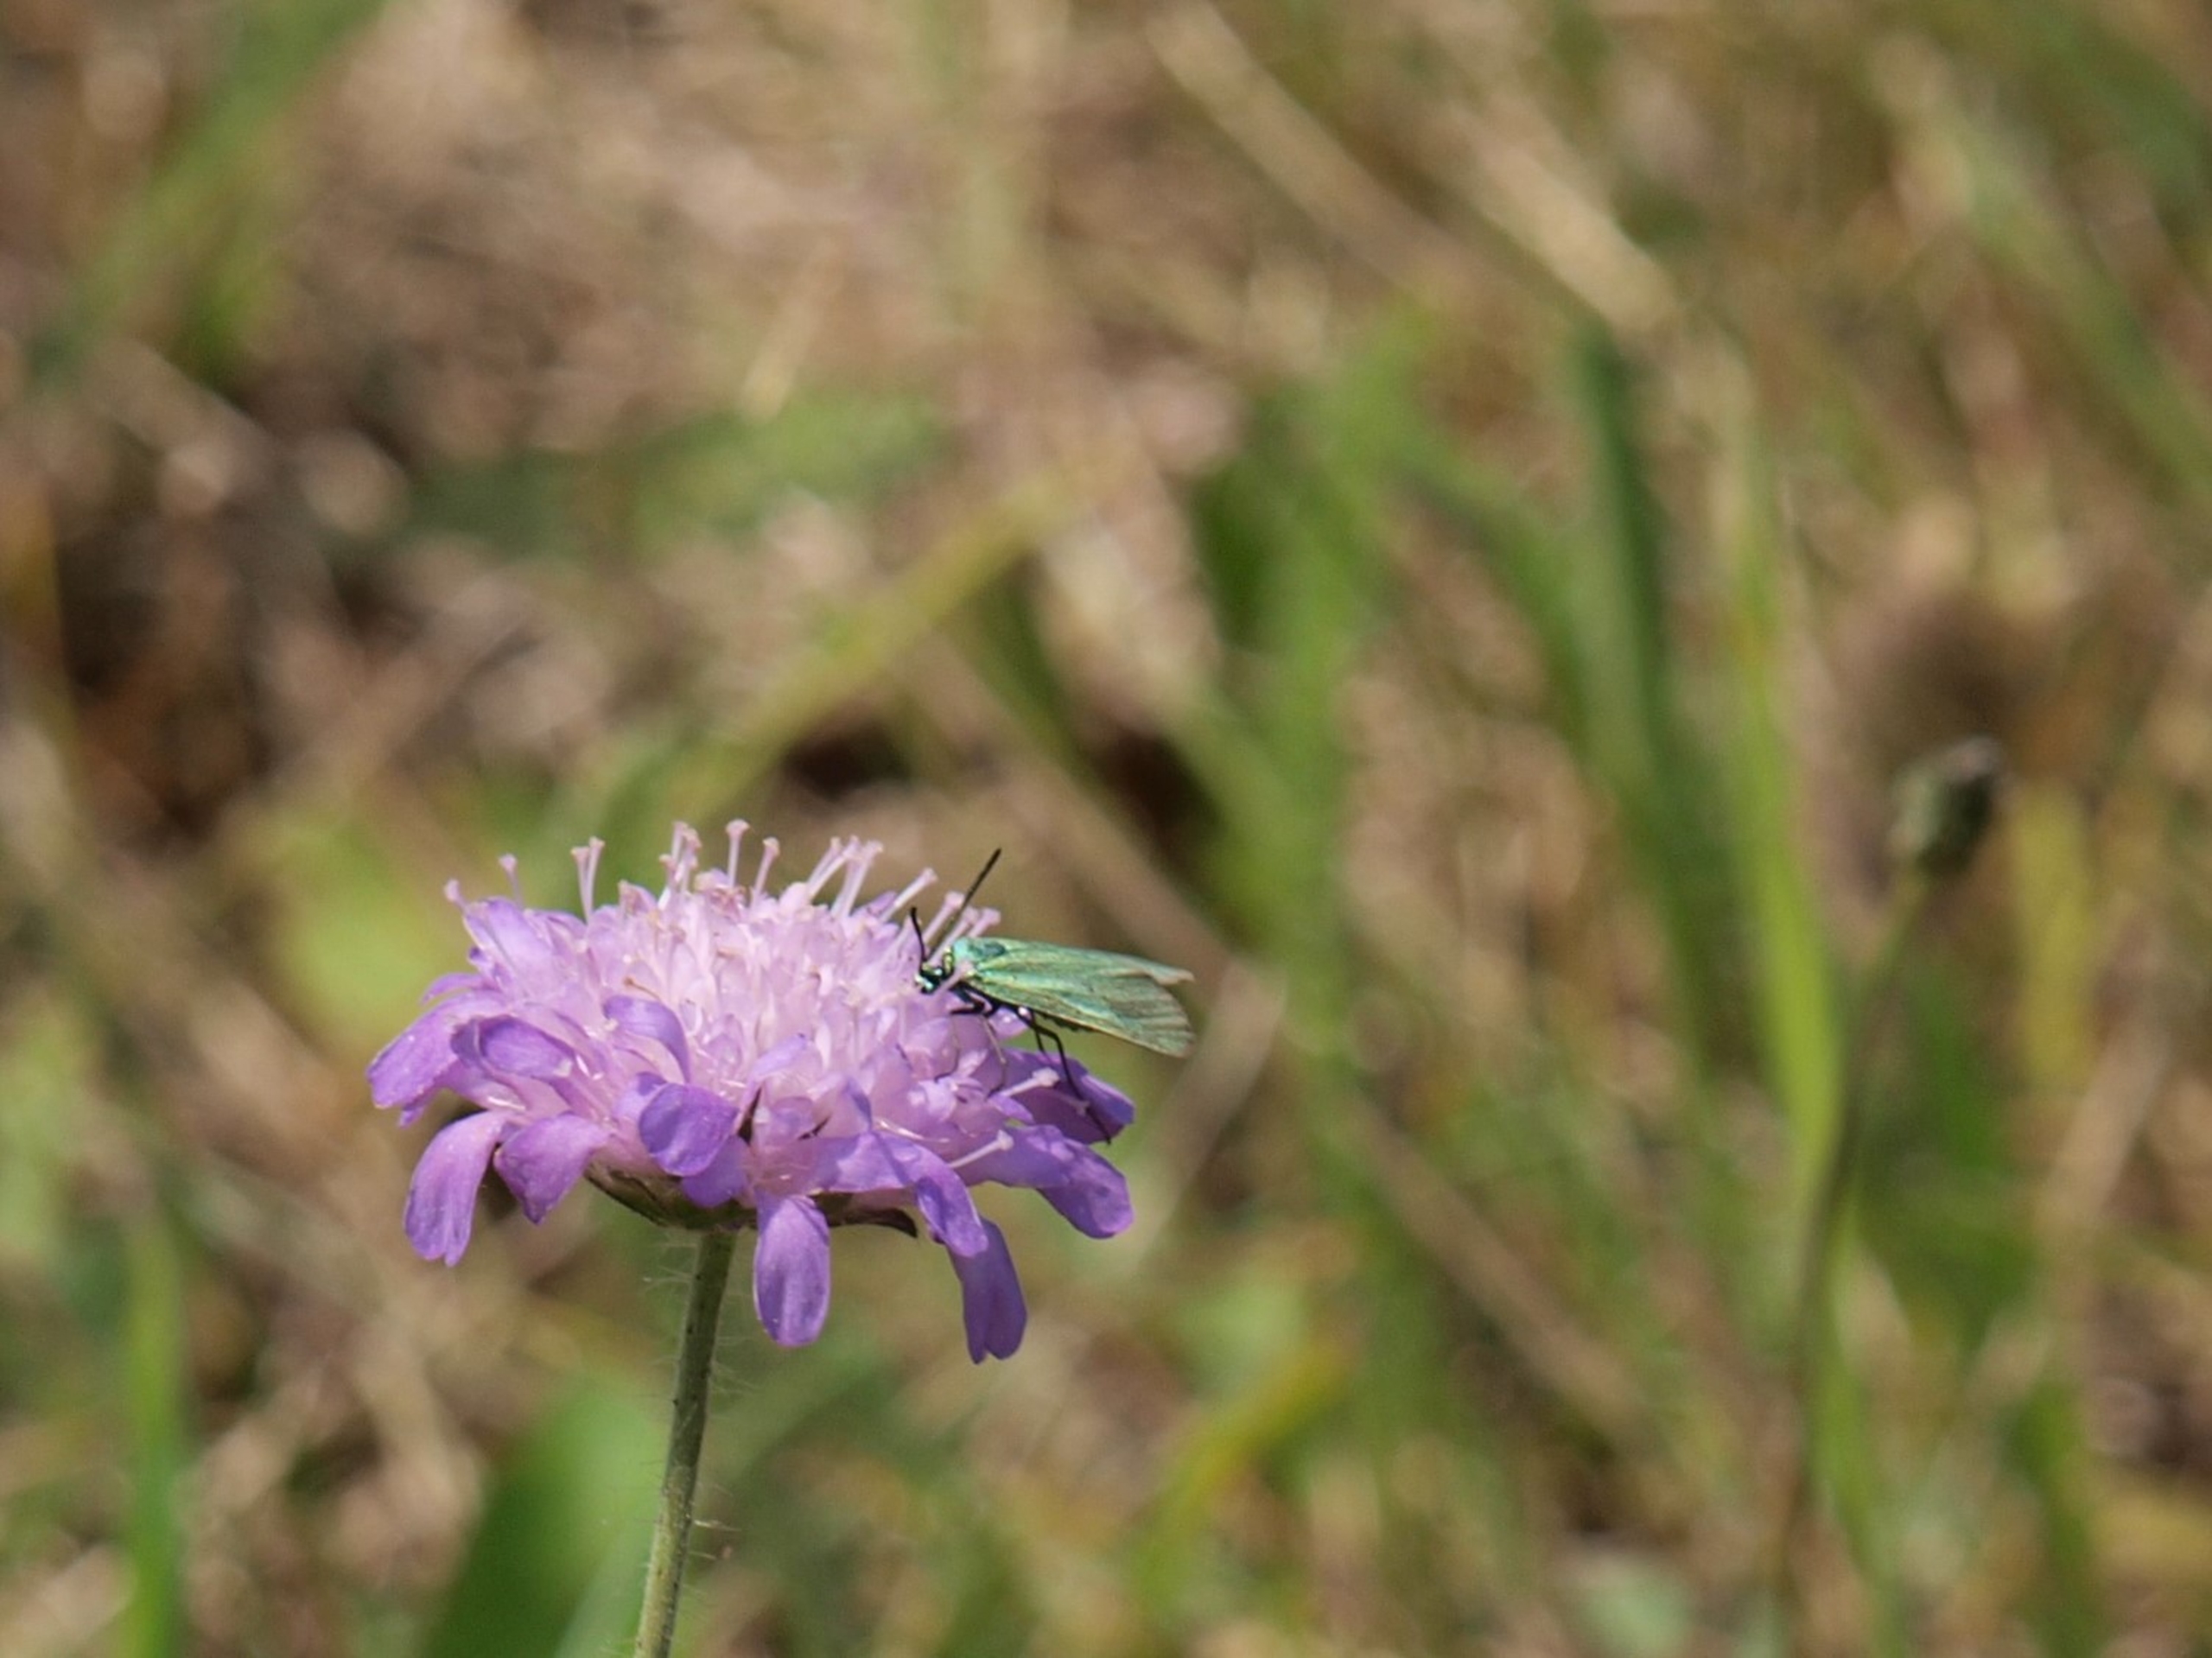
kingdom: Animalia
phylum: Arthropoda
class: Insecta
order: Lepidoptera
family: Zygaenidae
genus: Adscita
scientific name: Adscita statices
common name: Metalvinge
